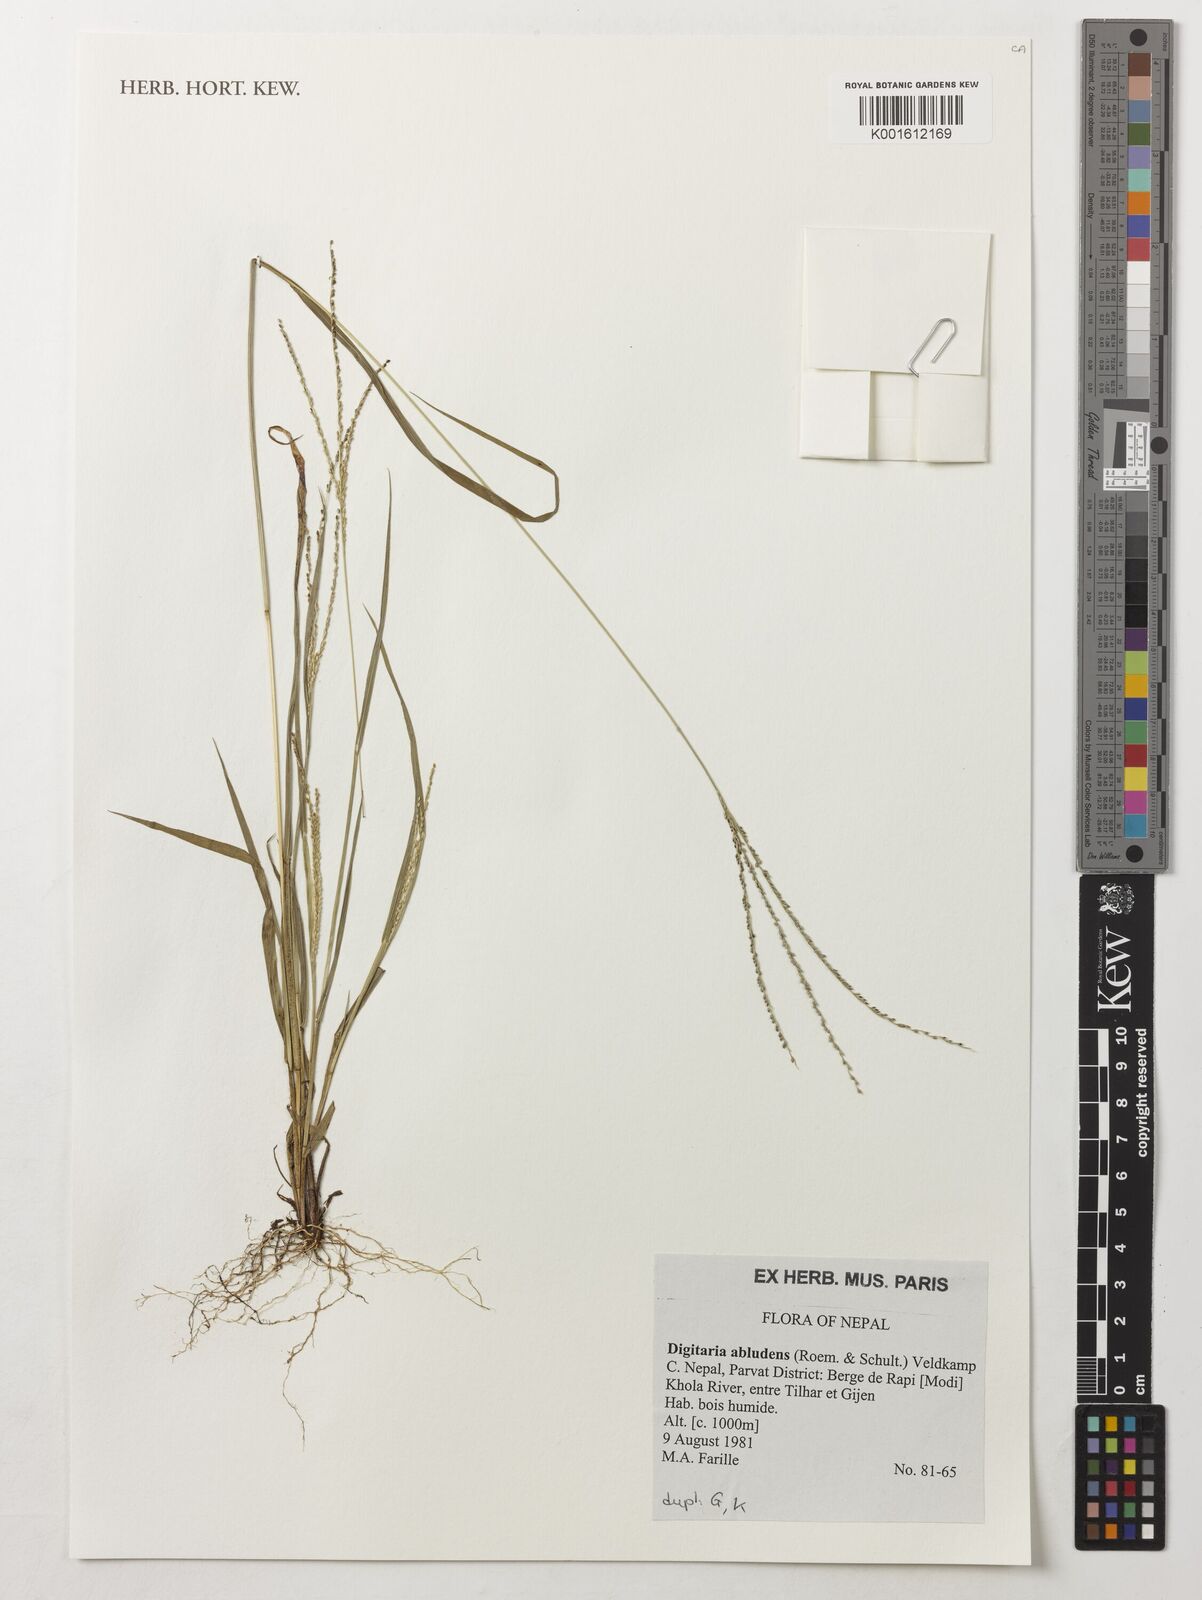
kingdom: Plantae
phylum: Tracheophyta
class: Liliopsida
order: Poales
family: Poaceae
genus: Digitaria
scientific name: Digitaria abludens
